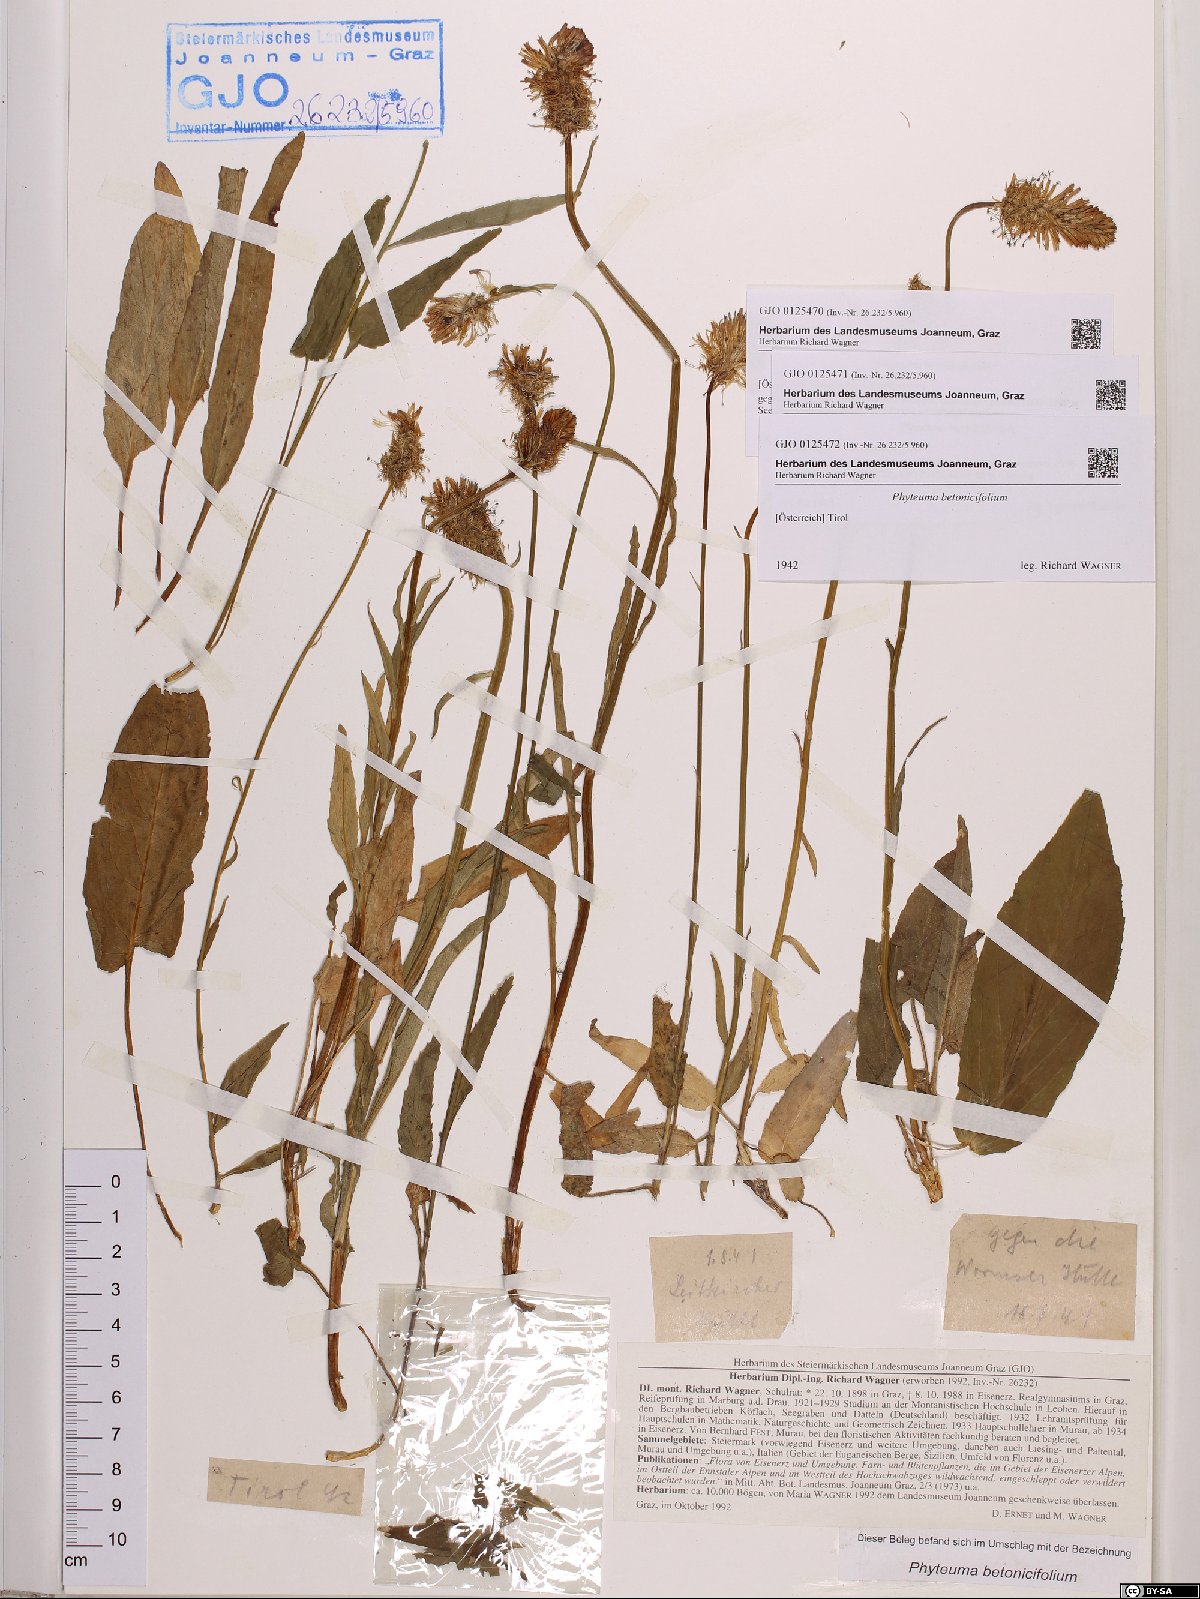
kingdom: Plantae
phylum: Tracheophyta
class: Magnoliopsida
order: Asterales
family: Campanulaceae
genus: Phyteuma
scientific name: Phyteuma betonicifolium
